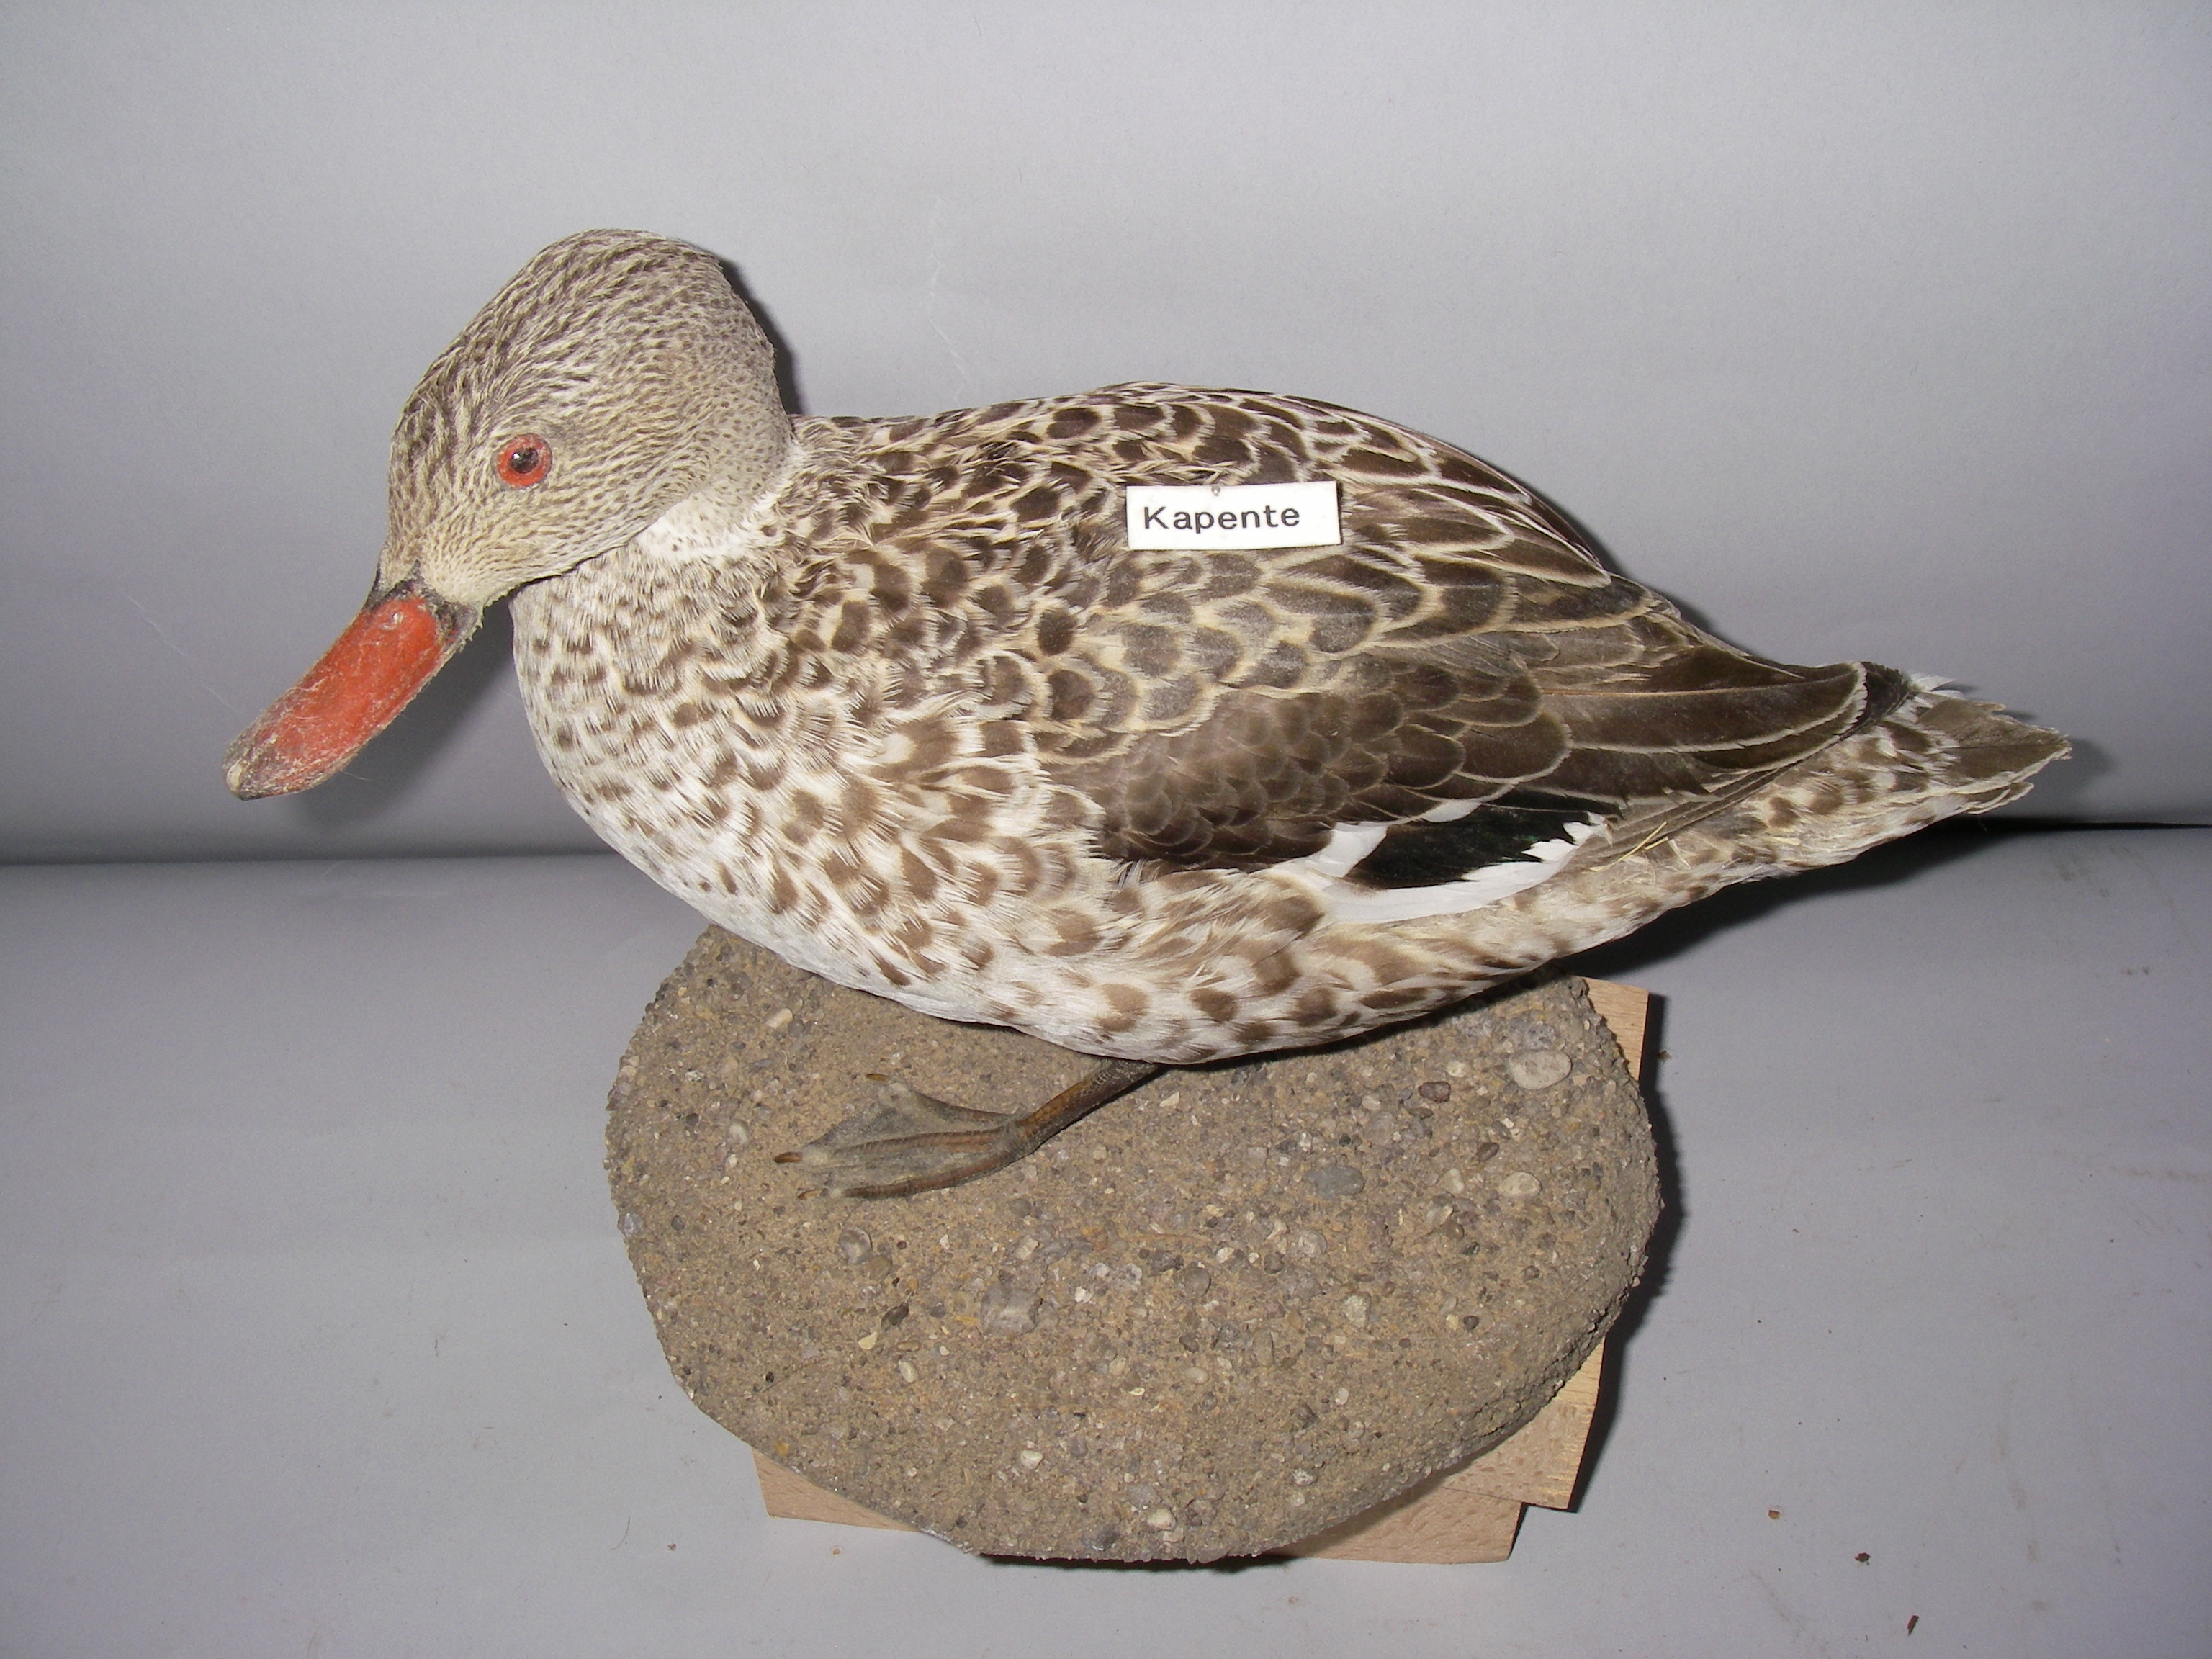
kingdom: Animalia
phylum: Chordata
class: Aves
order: Anseriformes
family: Anatidae
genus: Anas
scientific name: Anas capensis
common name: Cape teal
